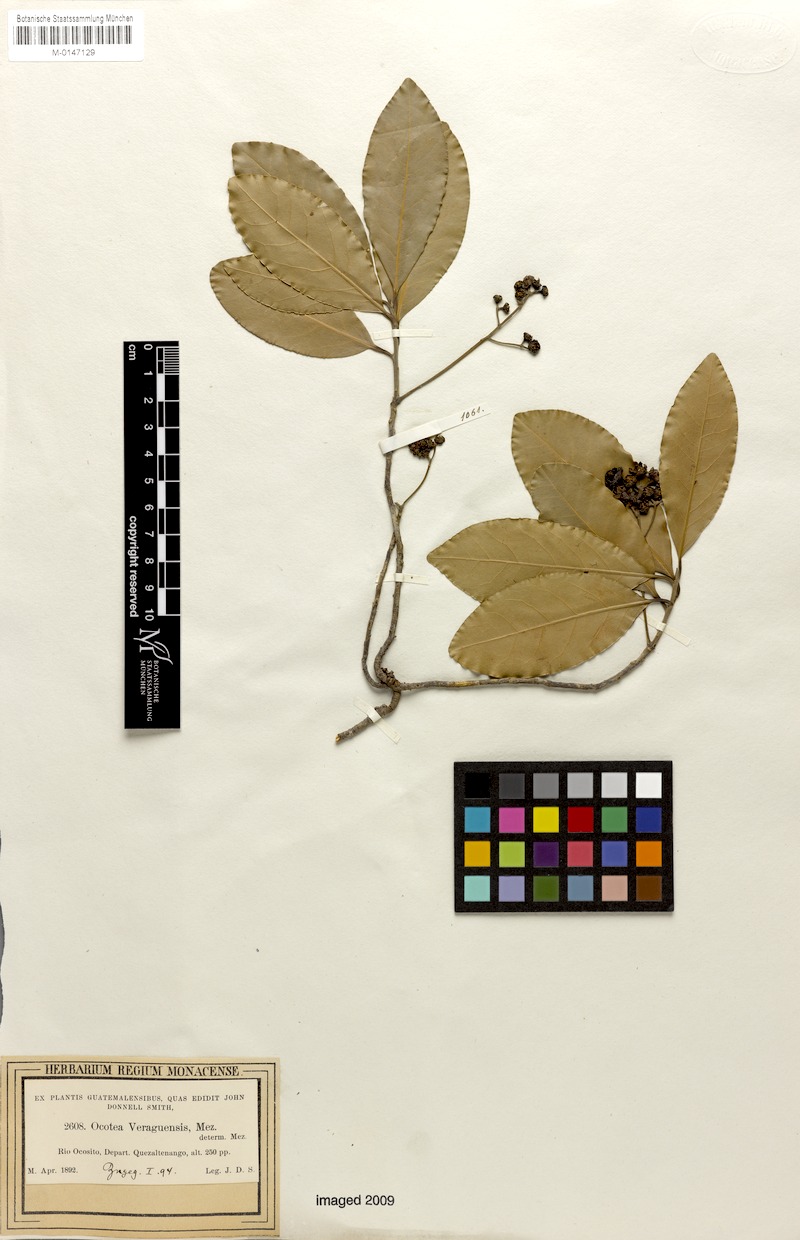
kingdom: Plantae
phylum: Tracheophyta
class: Magnoliopsida
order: Laurales
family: Lauraceae
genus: Mespilodaphne
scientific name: Mespilodaphne veraguensis
